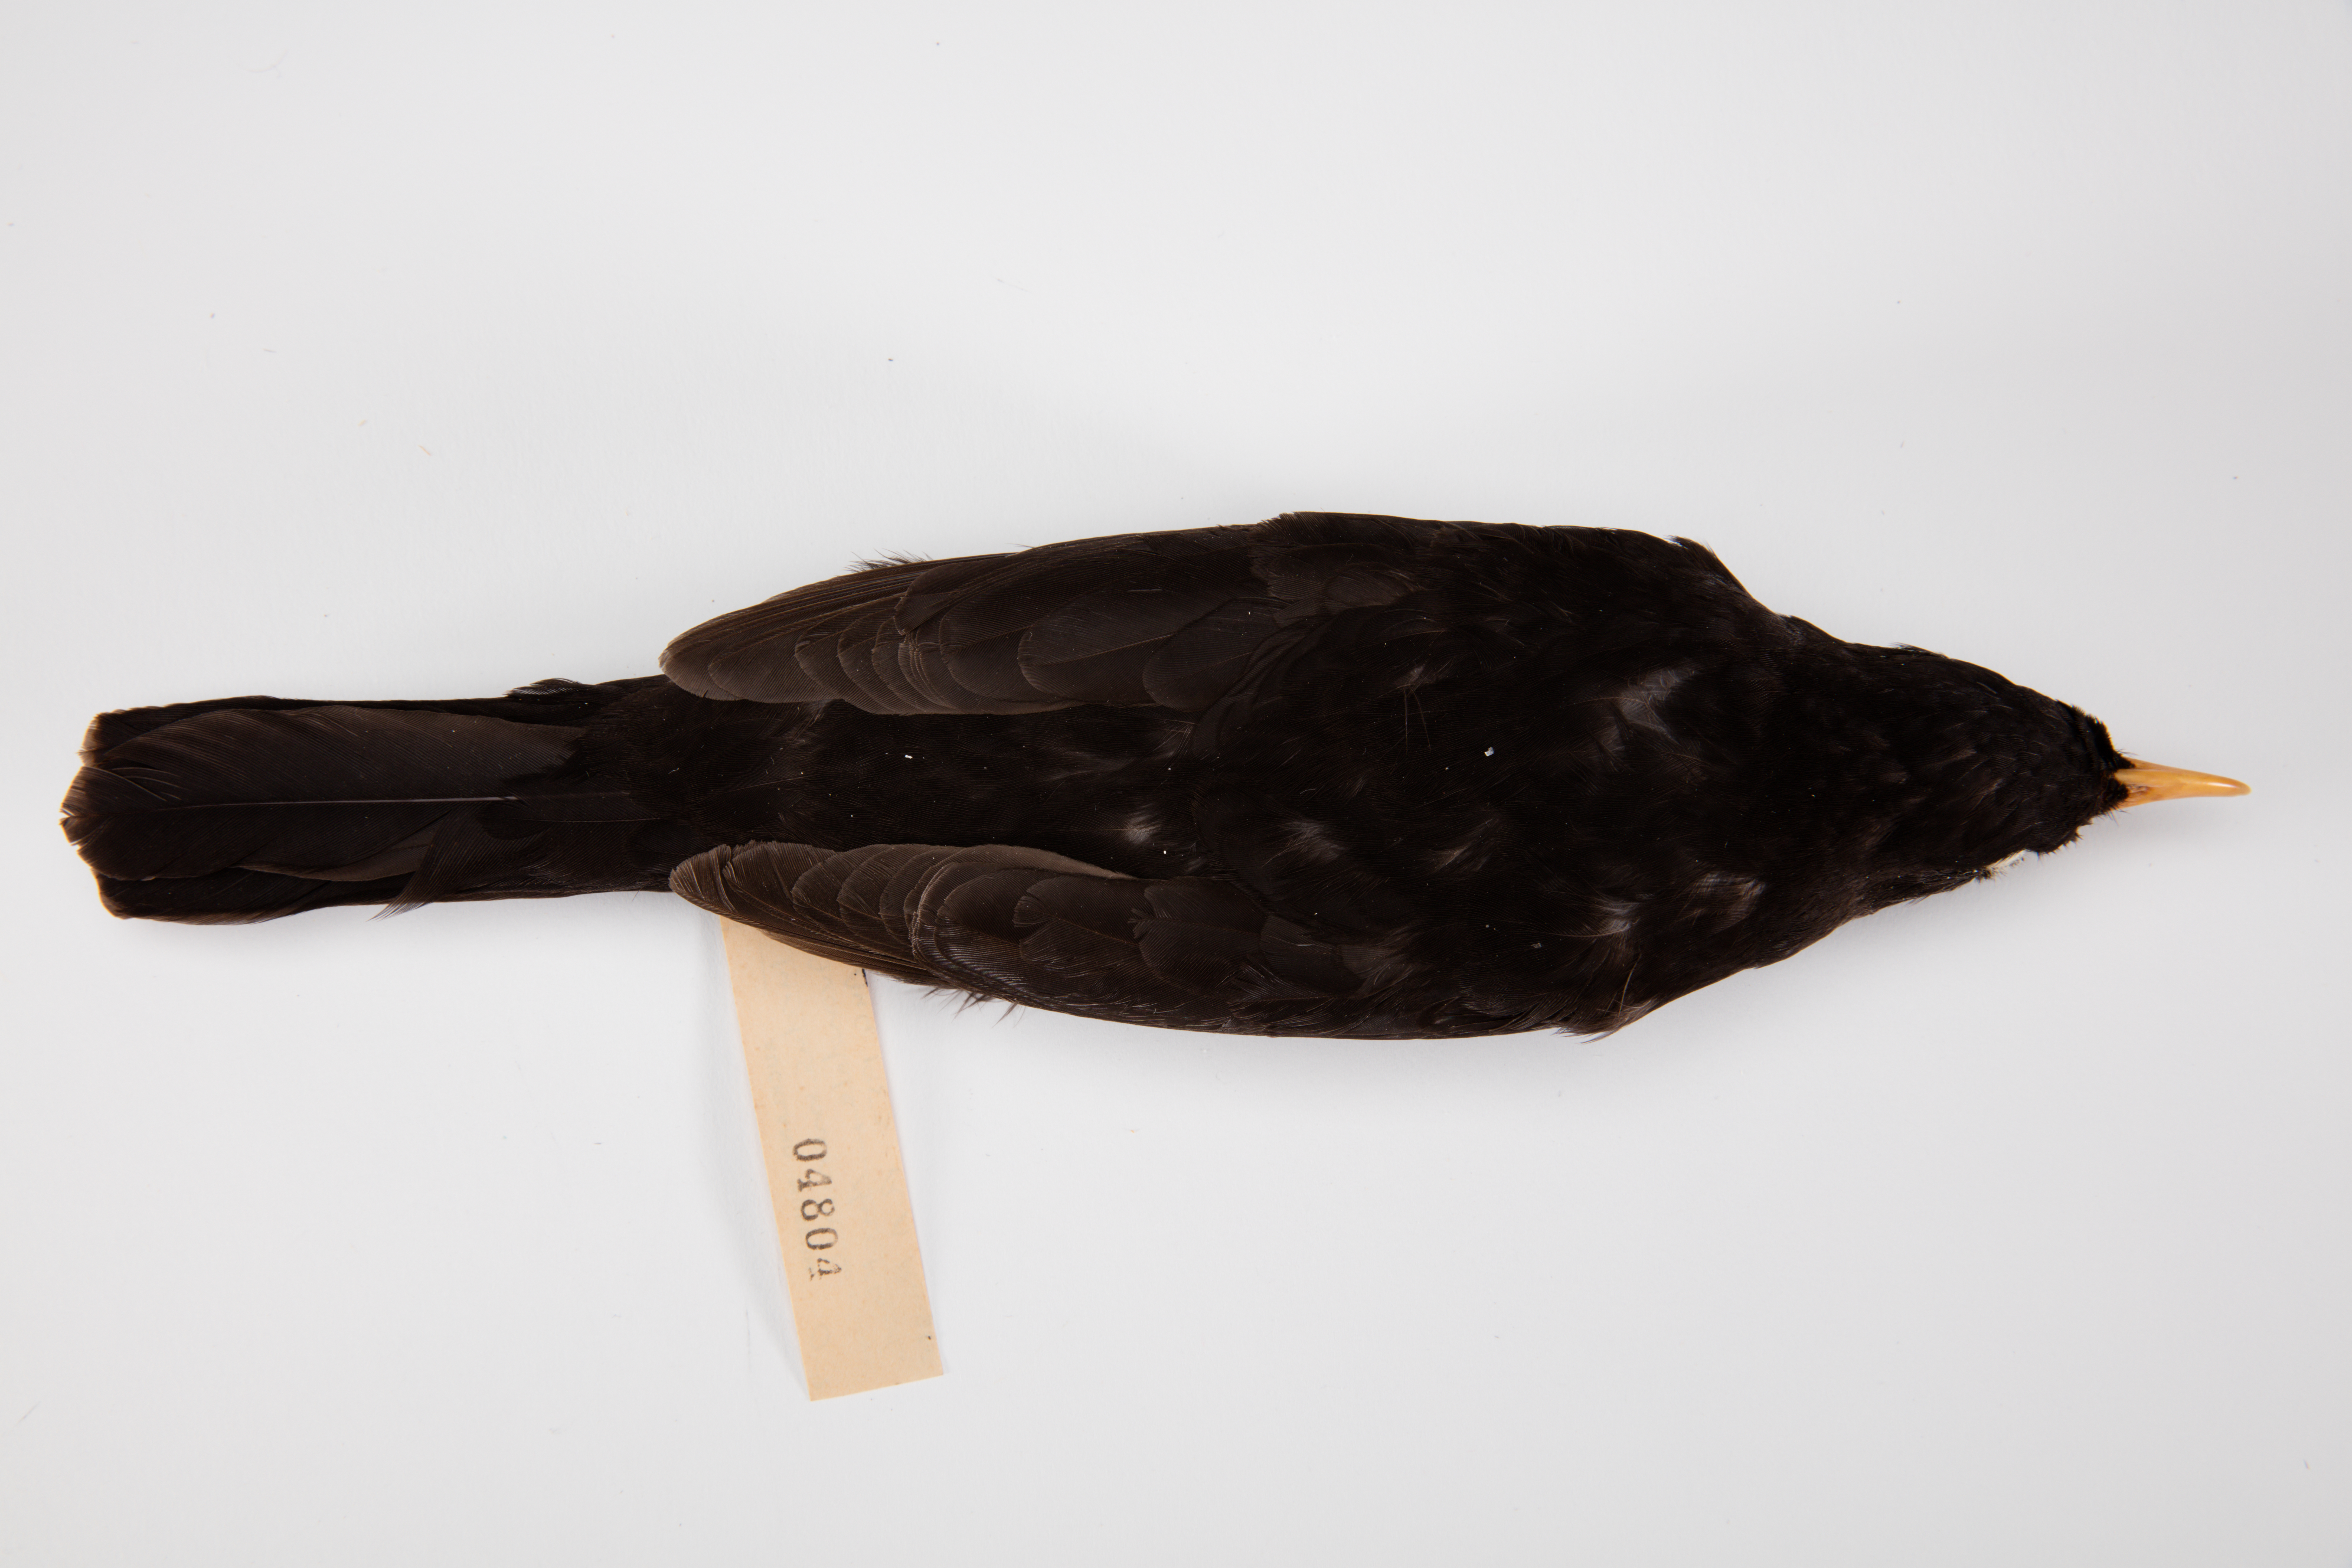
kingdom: Animalia
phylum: Chordata
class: Aves
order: Passeriformes
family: Turdidae
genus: Turdus
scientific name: Turdus merula
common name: Common blackbird
